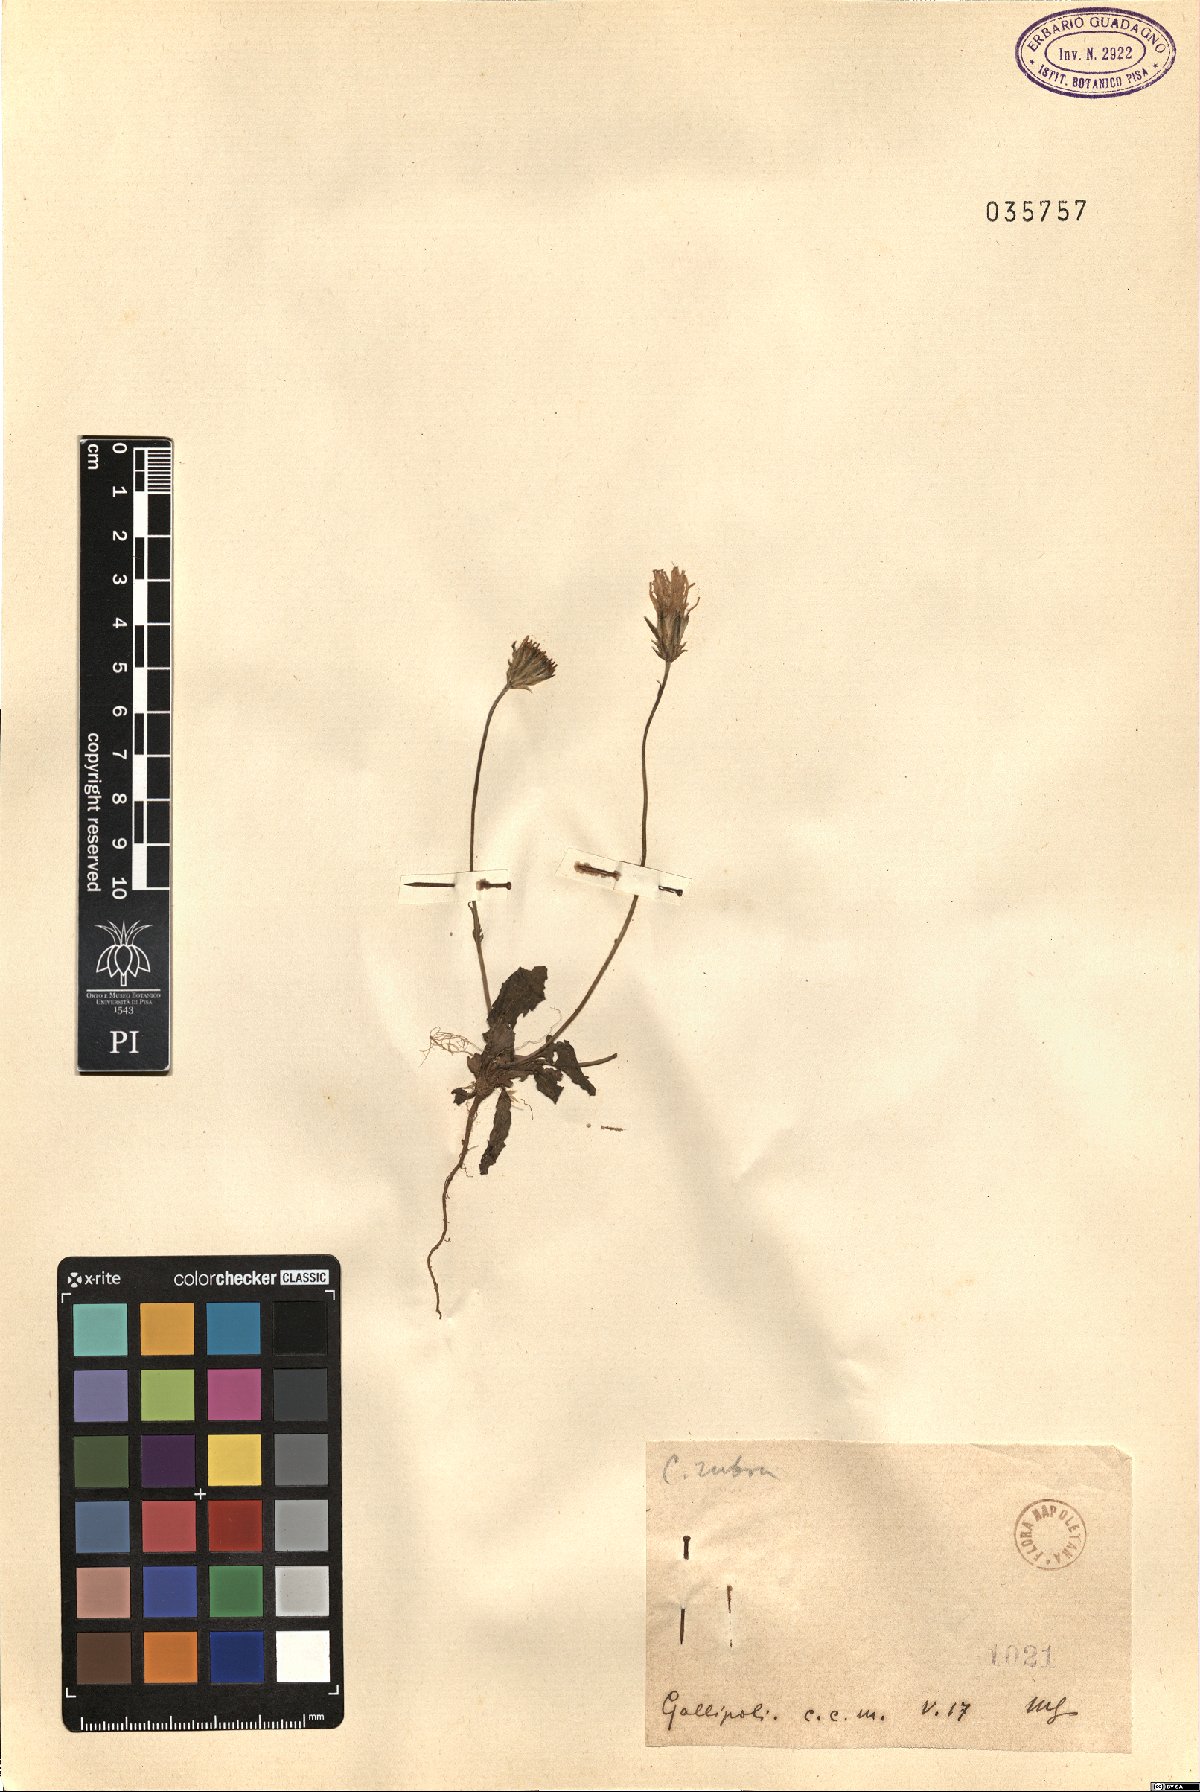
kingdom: Plantae
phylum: Tracheophyta
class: Magnoliopsida
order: Asterales
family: Asteraceae
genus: Crepis
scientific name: Crepis rubra
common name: Pink hawk's-beard
